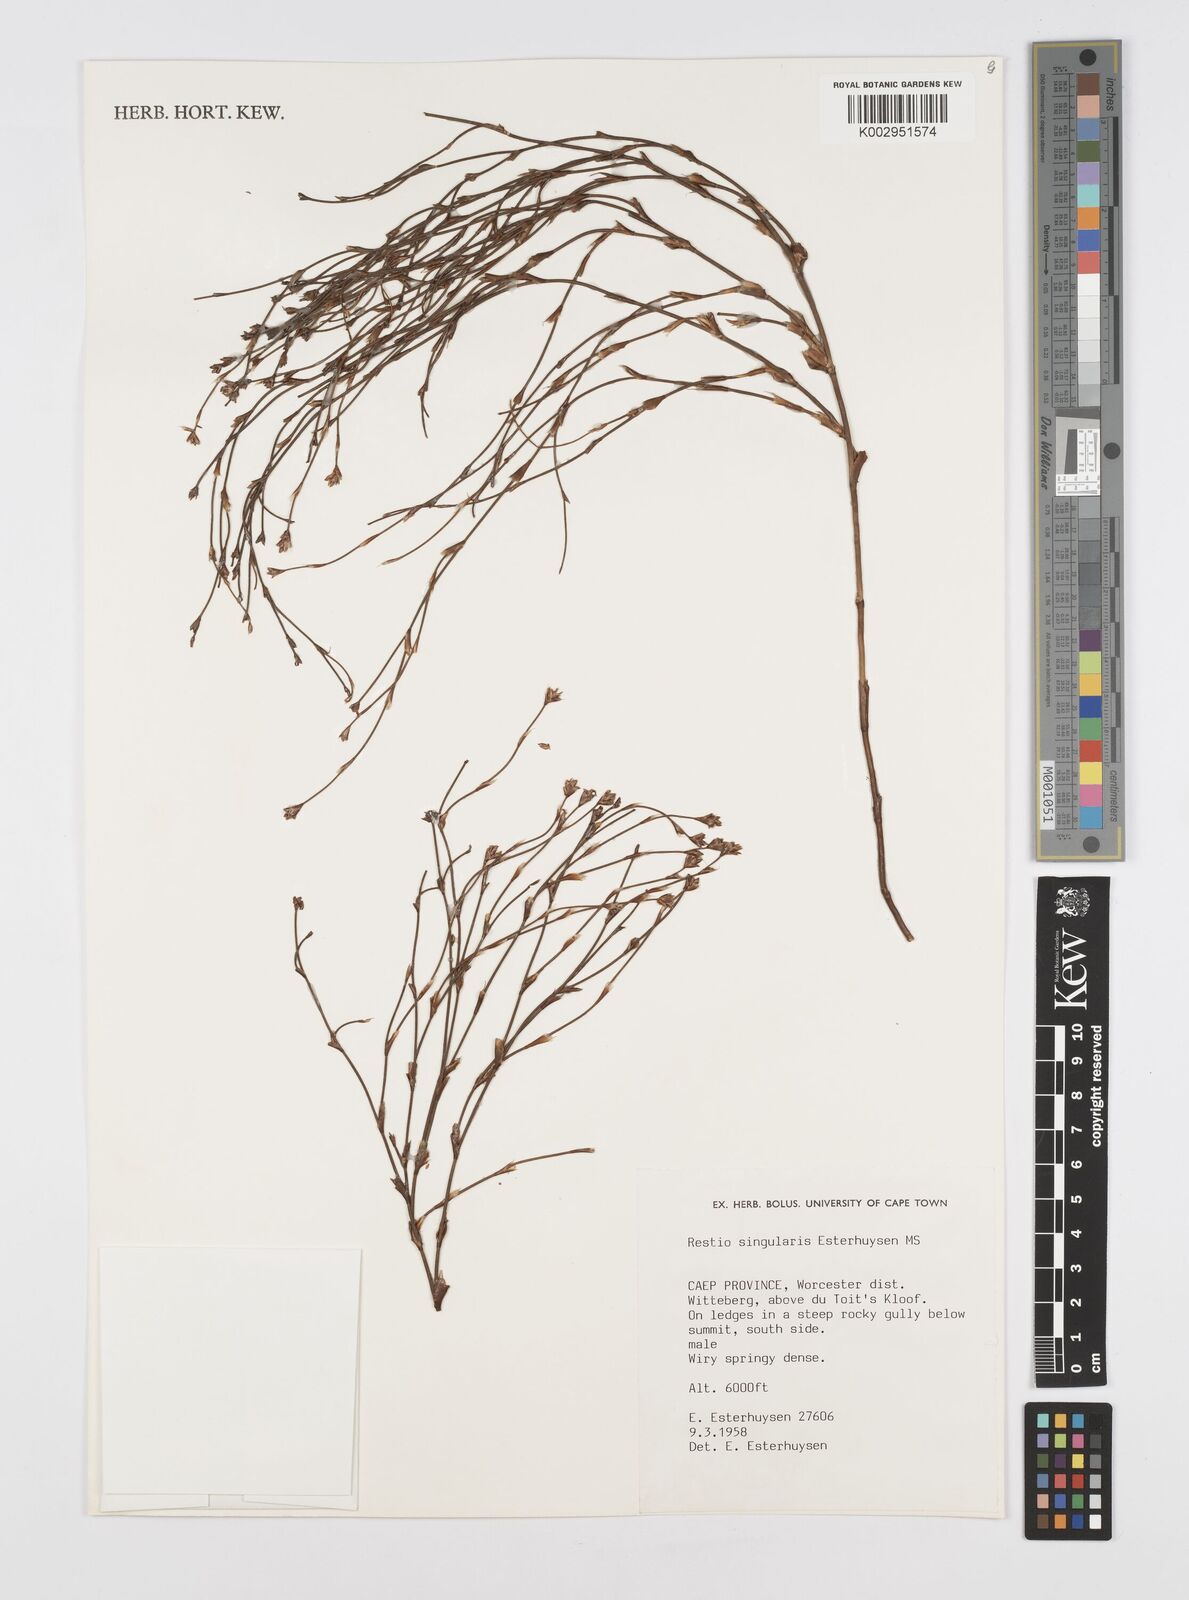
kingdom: Plantae
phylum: Tracheophyta
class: Liliopsida
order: Poales
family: Restionaceae
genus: Restio
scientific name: Restio singularis
